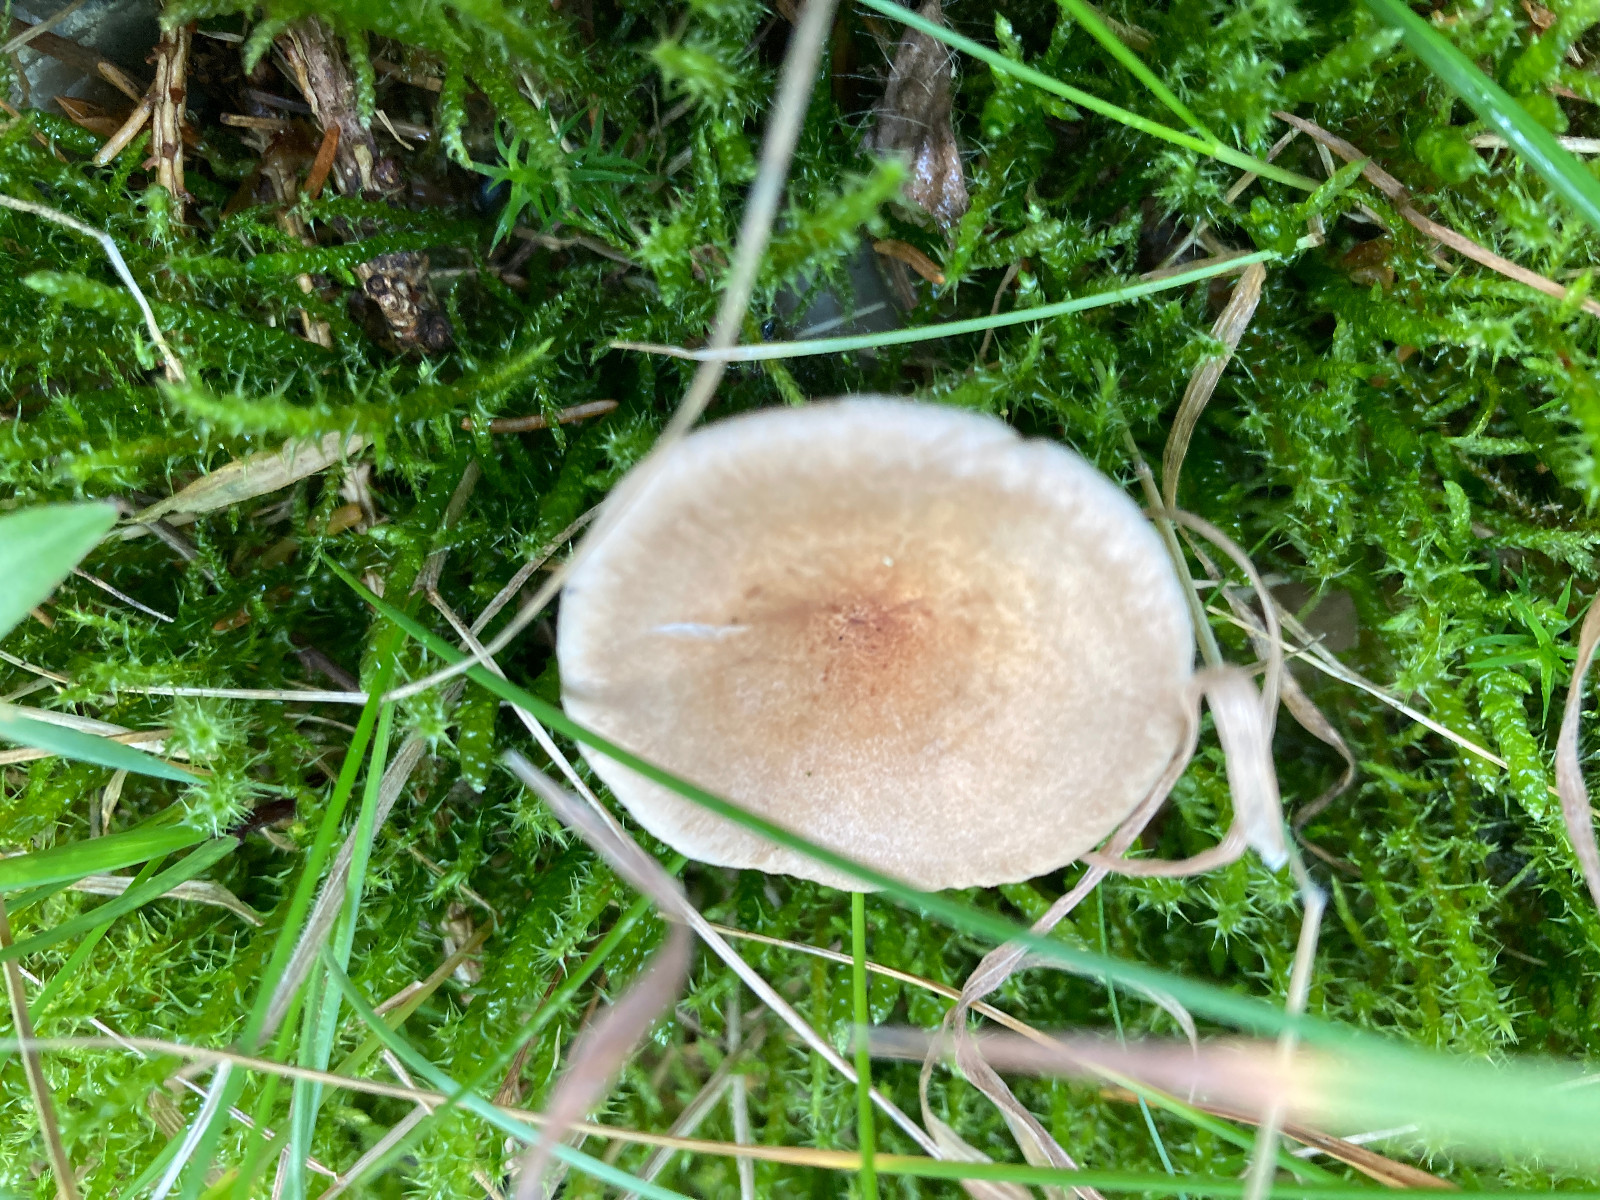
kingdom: Fungi
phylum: Basidiomycota
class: Agaricomycetes
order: Agaricales
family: Tricholomataceae
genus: Infundibulicybe
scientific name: Infundibulicybe squamulosa
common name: småskællet tragthat
